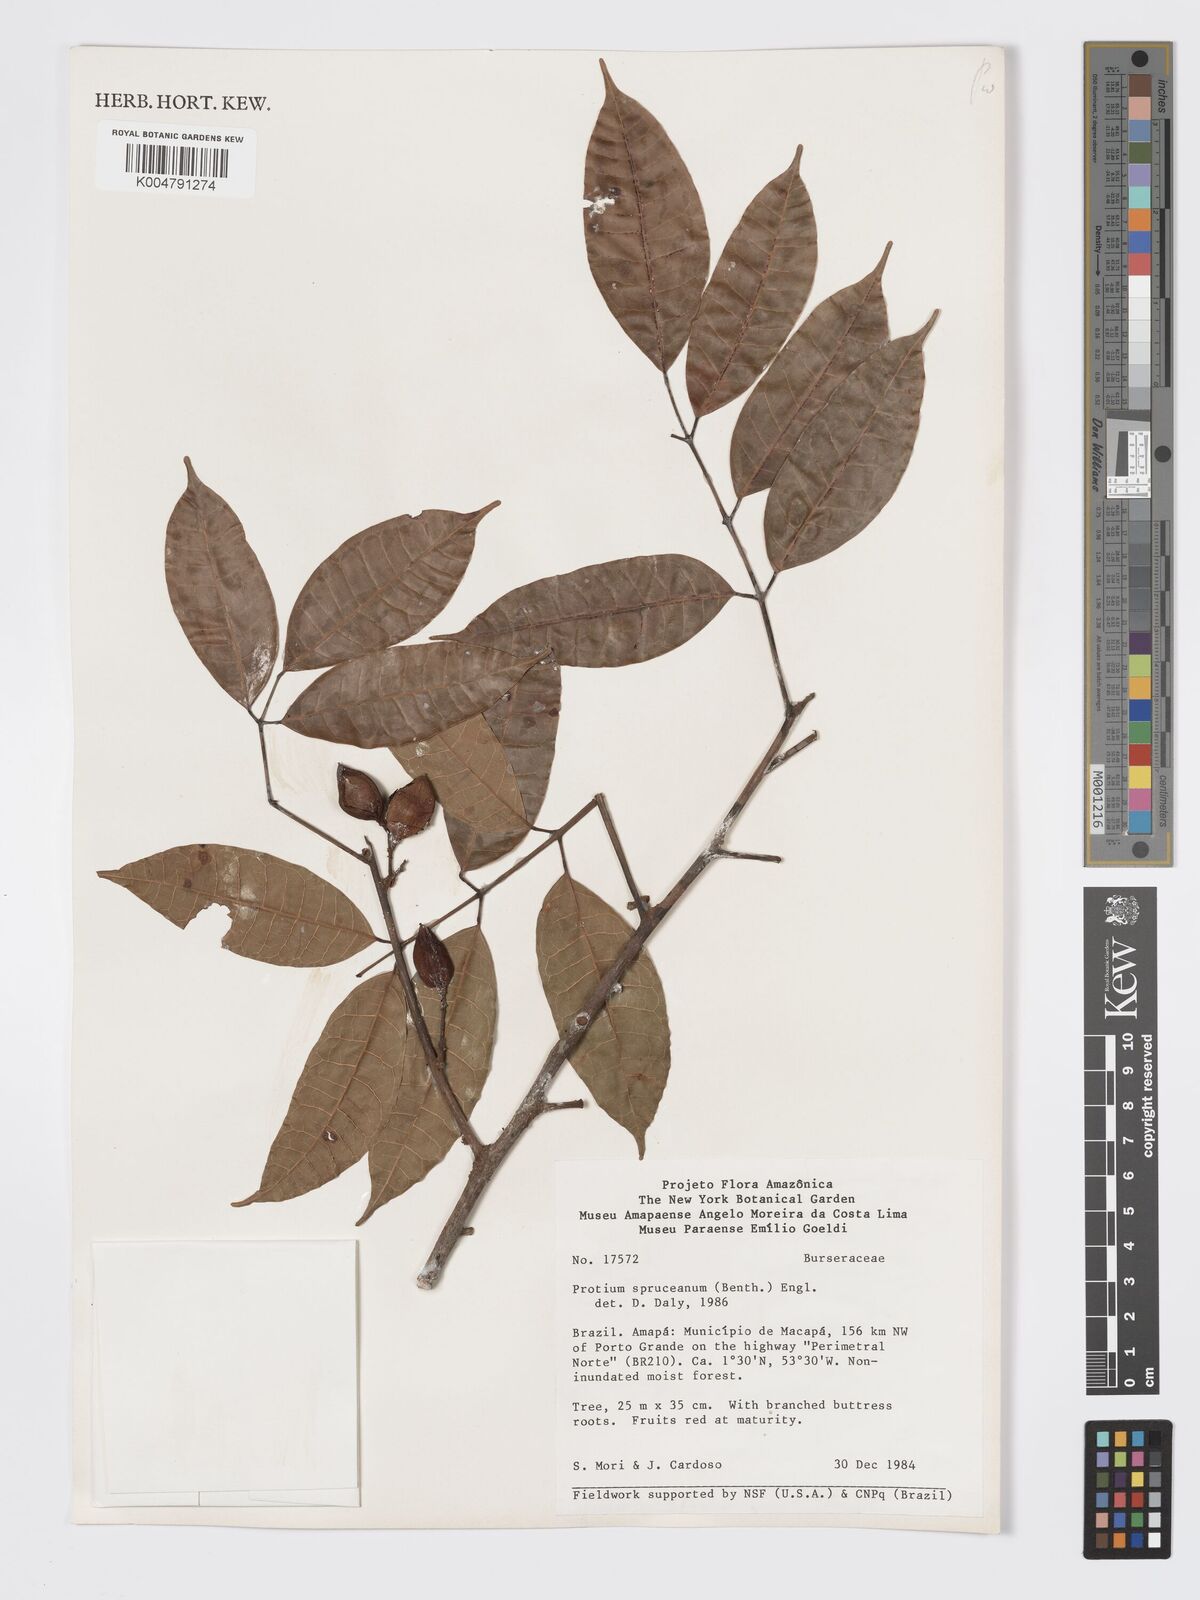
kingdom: Plantae
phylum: Tracheophyta
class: Magnoliopsida
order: Sapindales
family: Burseraceae
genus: Protium
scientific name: Protium spruceanum
